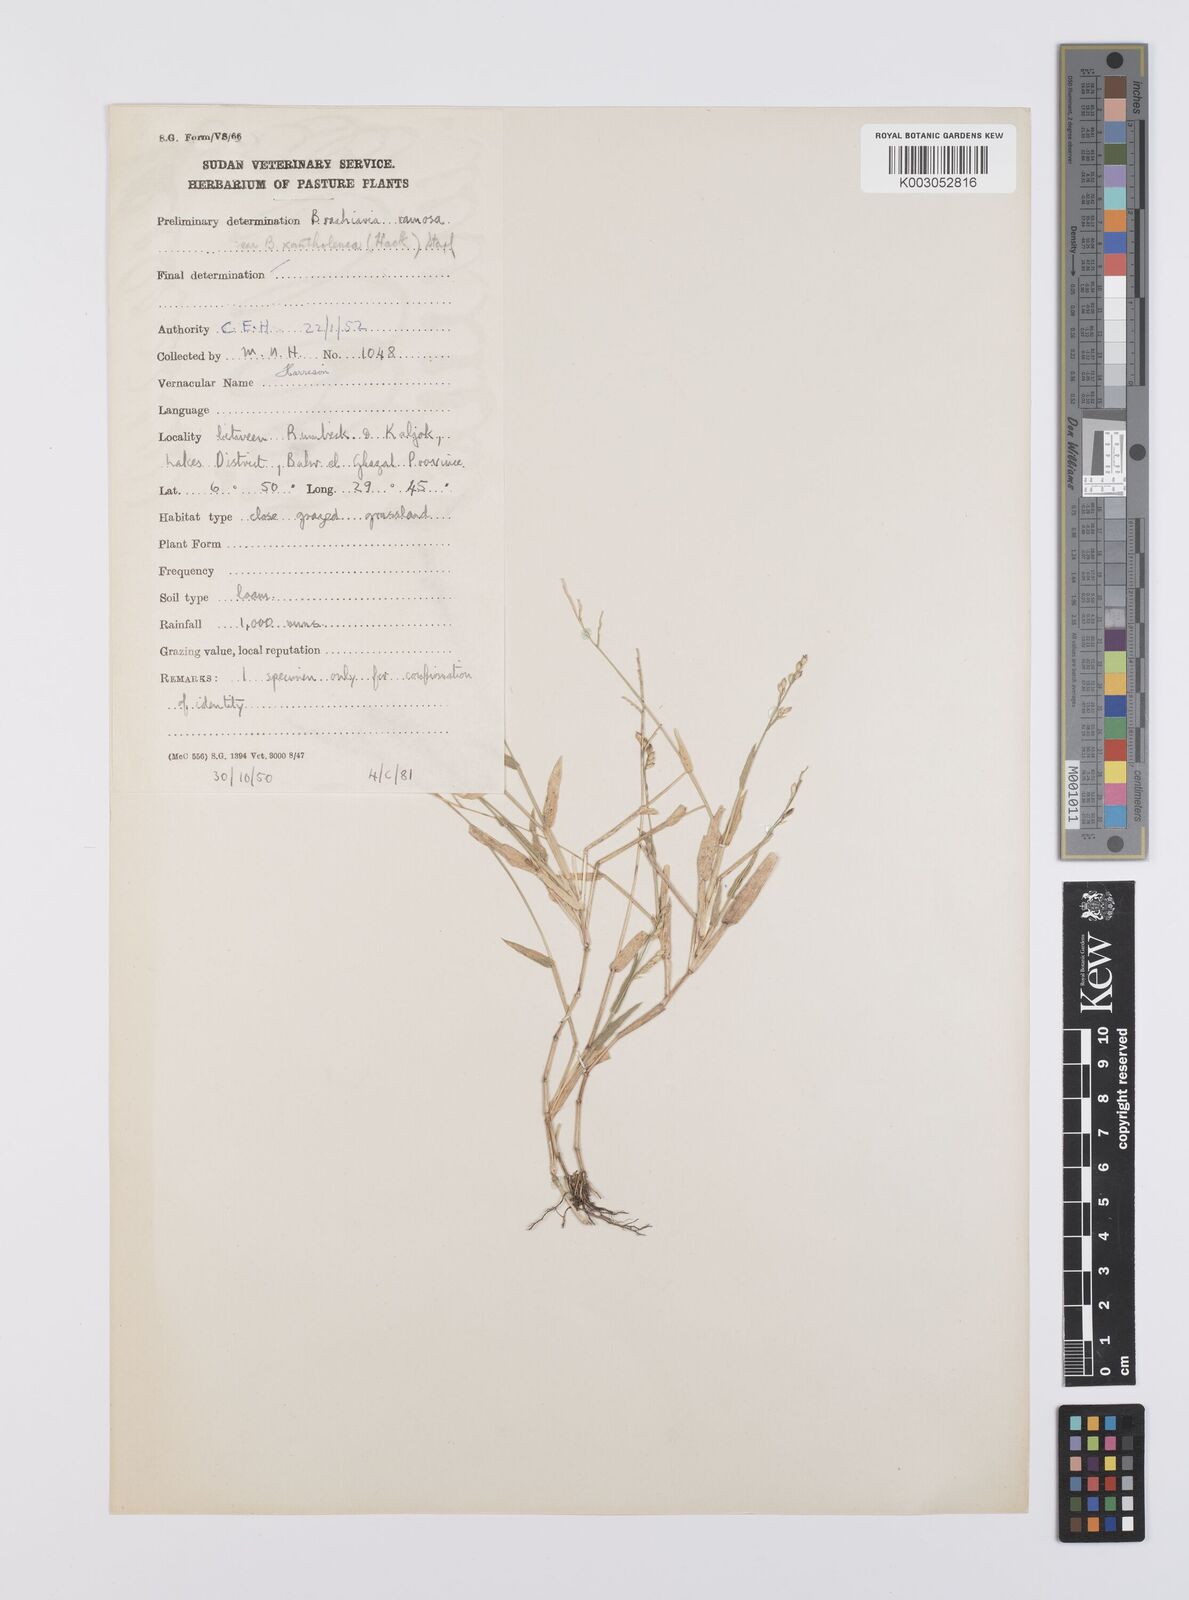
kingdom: Plantae
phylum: Tracheophyta
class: Liliopsida
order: Poales
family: Poaceae
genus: Urochloa
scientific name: Urochloa xantholeuca
